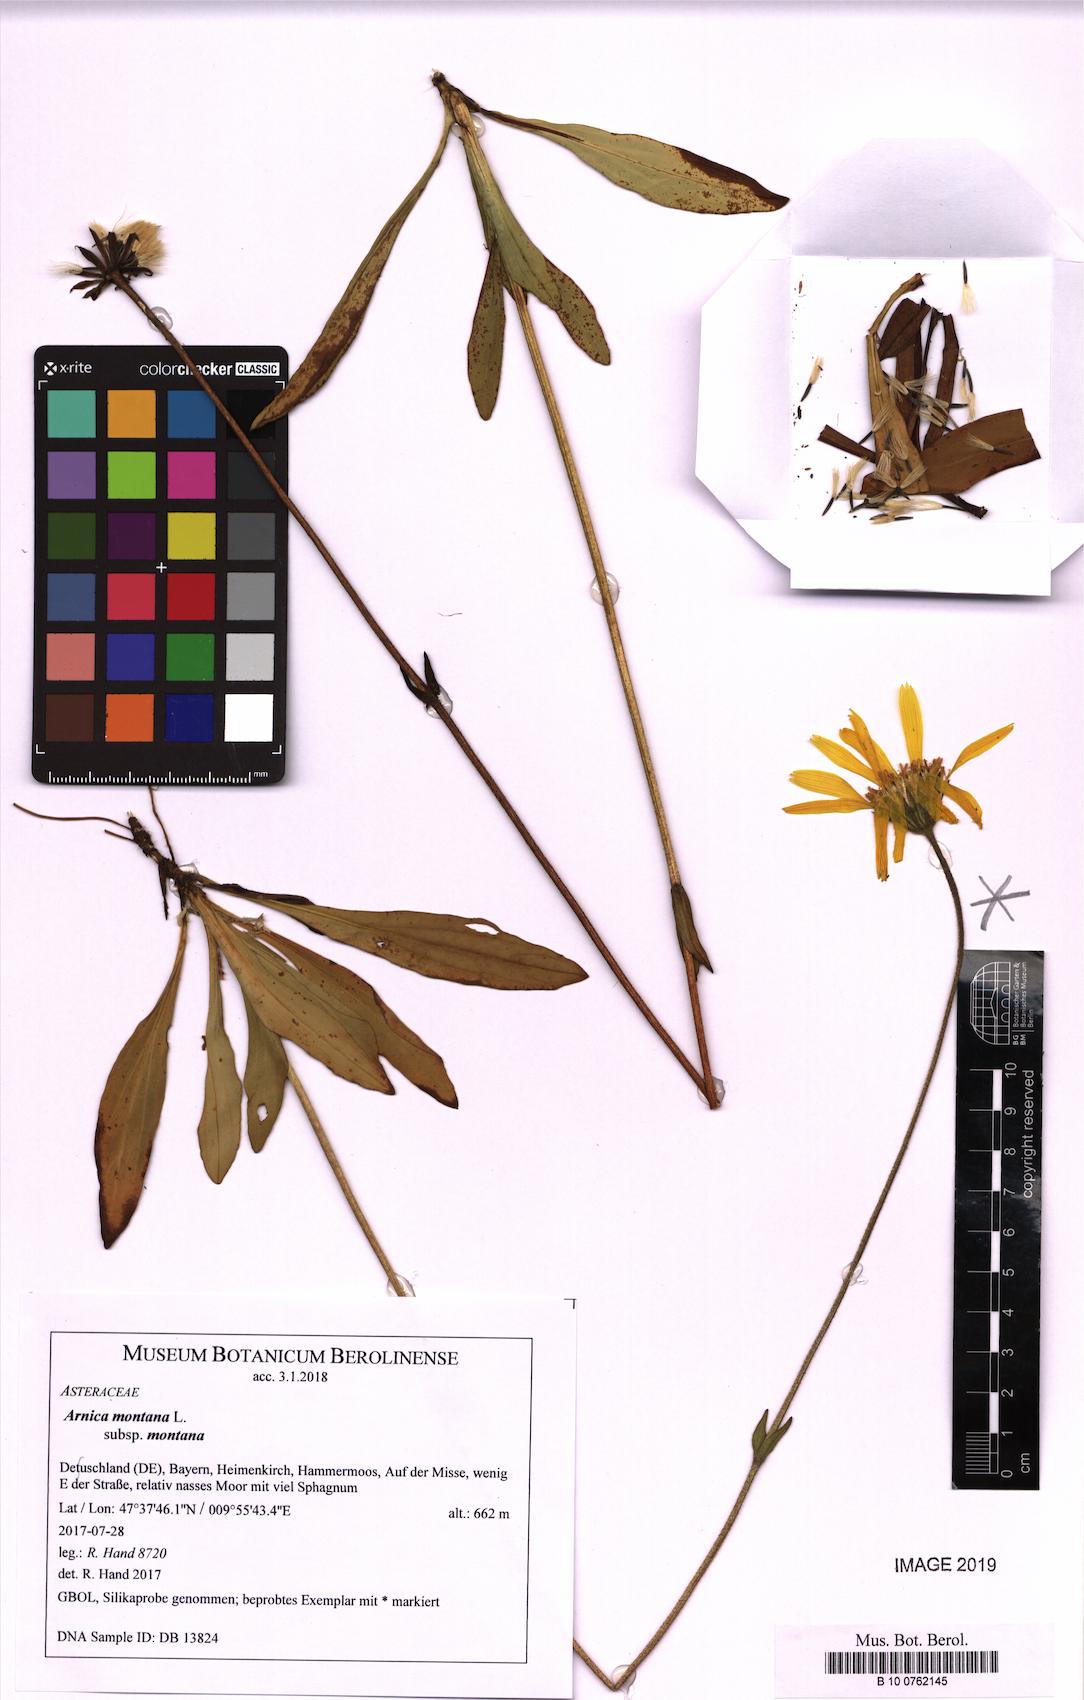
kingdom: Plantae
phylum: Tracheophyta
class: Magnoliopsida
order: Asterales
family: Asteraceae
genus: Arnica
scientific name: Arnica montana
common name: Leopard's bane
